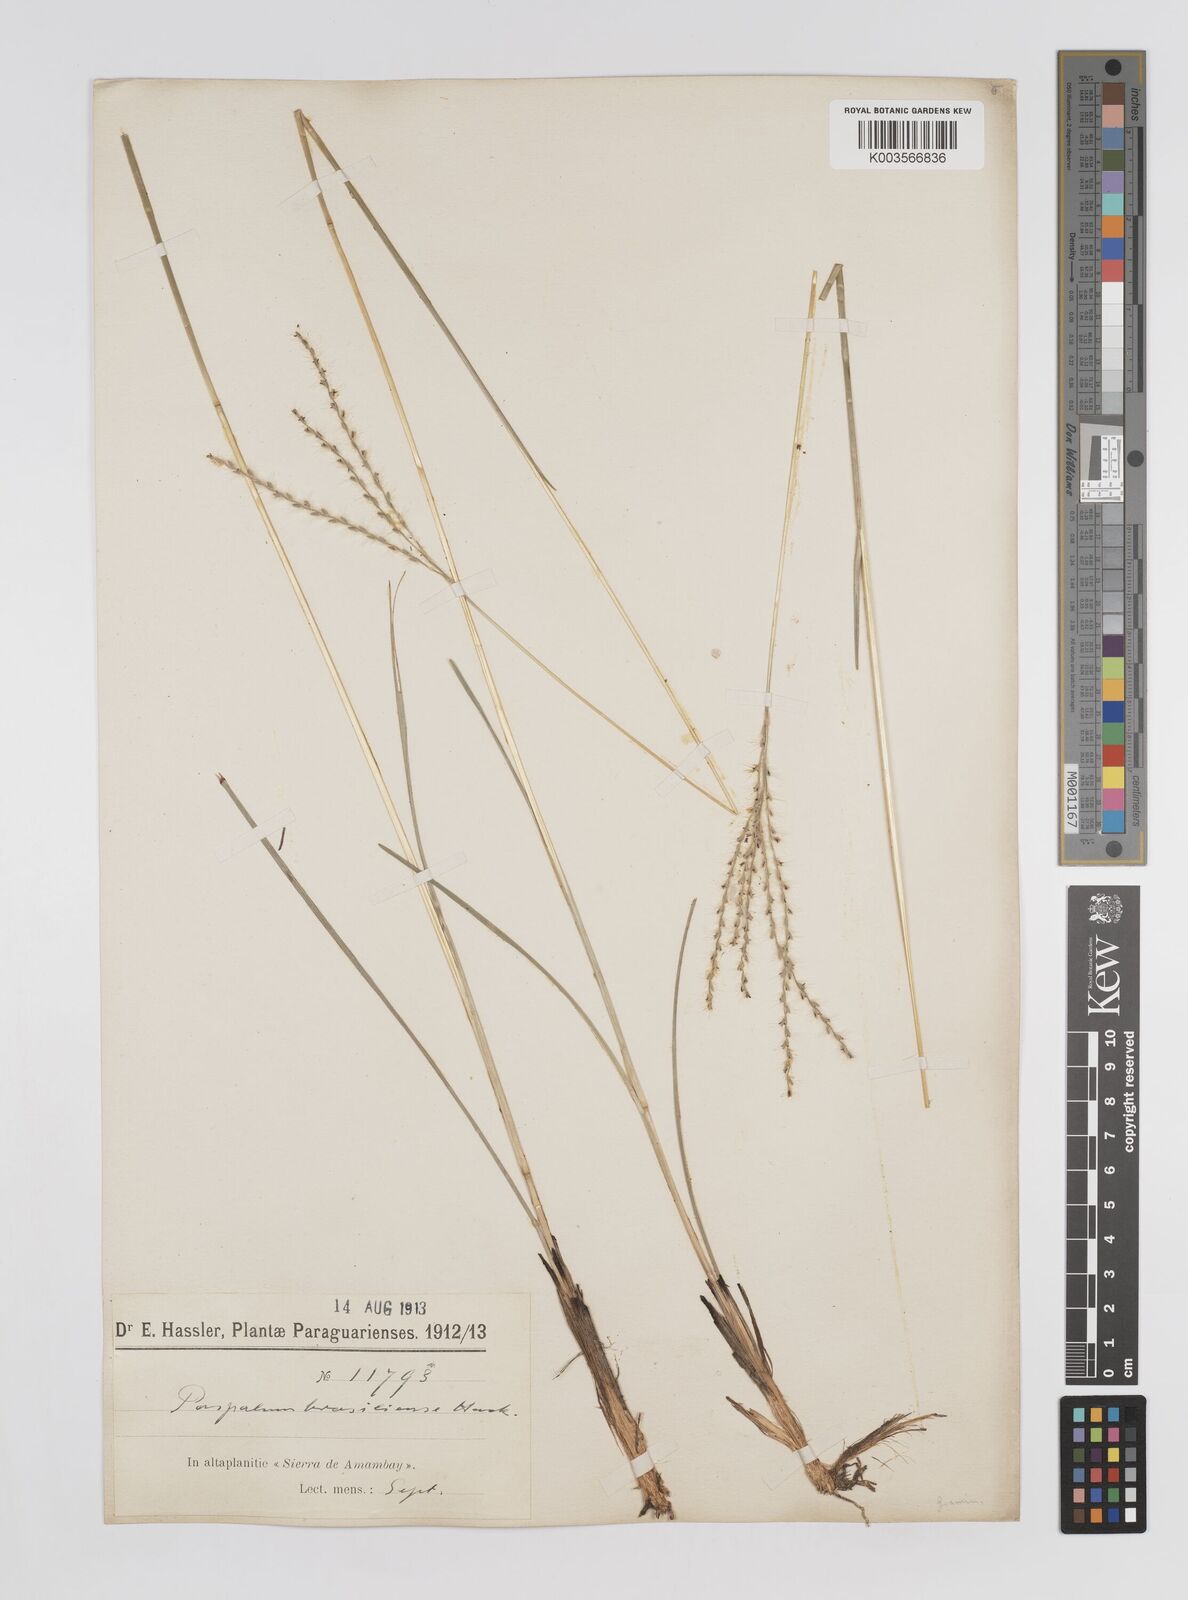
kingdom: Plantae
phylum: Tracheophyta
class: Liliopsida
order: Poales
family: Poaceae
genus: Axonopus
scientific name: Axonopus brasiliensis
